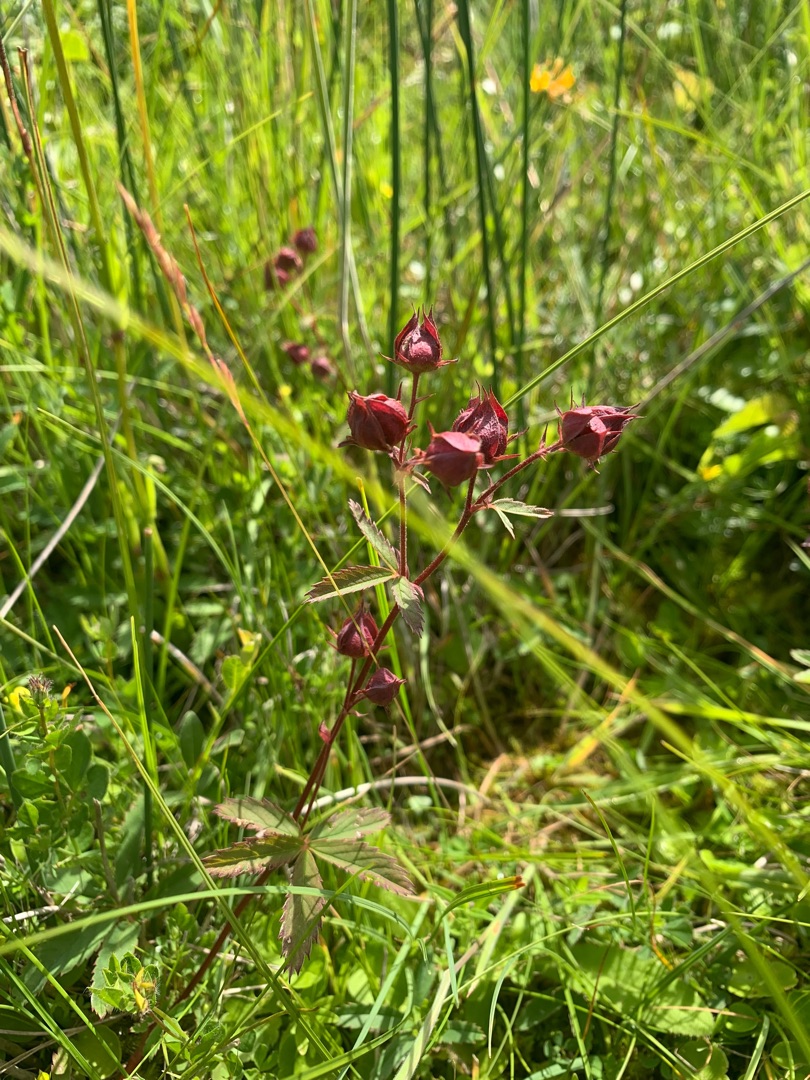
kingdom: Plantae
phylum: Tracheophyta
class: Magnoliopsida
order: Rosales
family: Rosaceae
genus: Comarum
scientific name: Comarum palustre
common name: Kragefod
